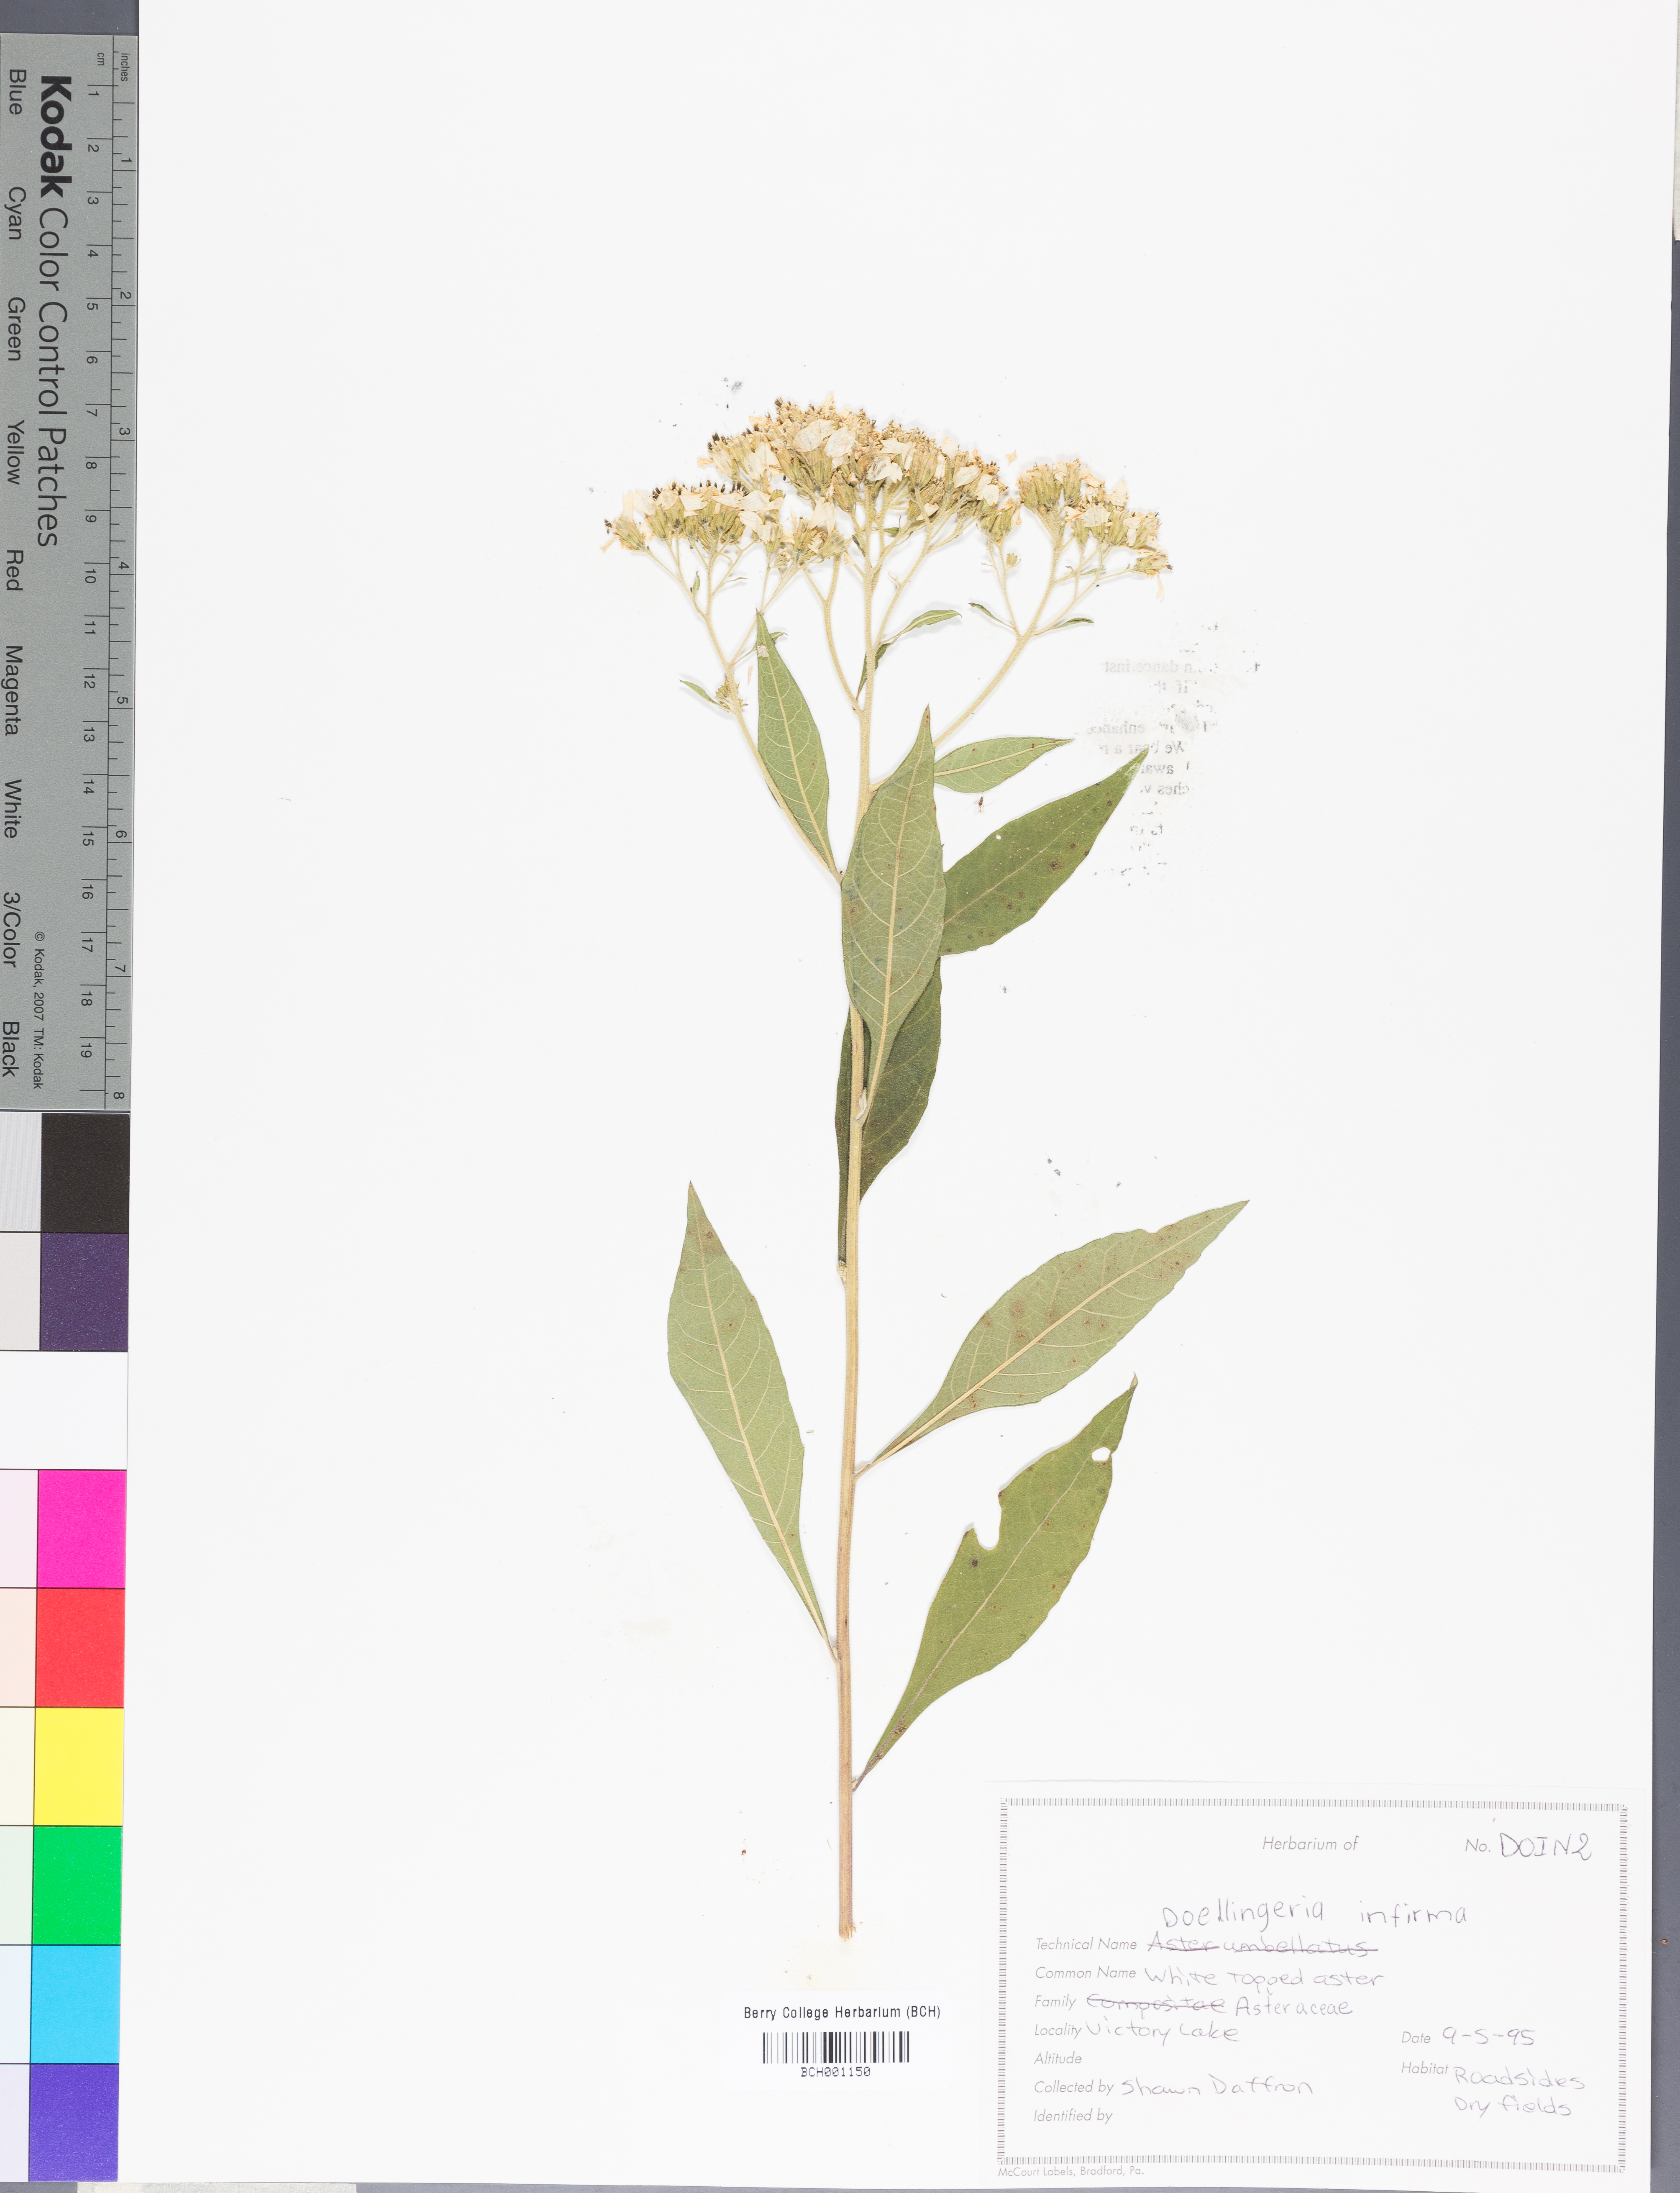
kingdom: Plantae
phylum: Tracheophyta
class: Magnoliopsida
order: Asterales
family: Asteraceae
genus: Doellingeria
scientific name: Doellingeria infirma
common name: Appalachian flat-top aster
